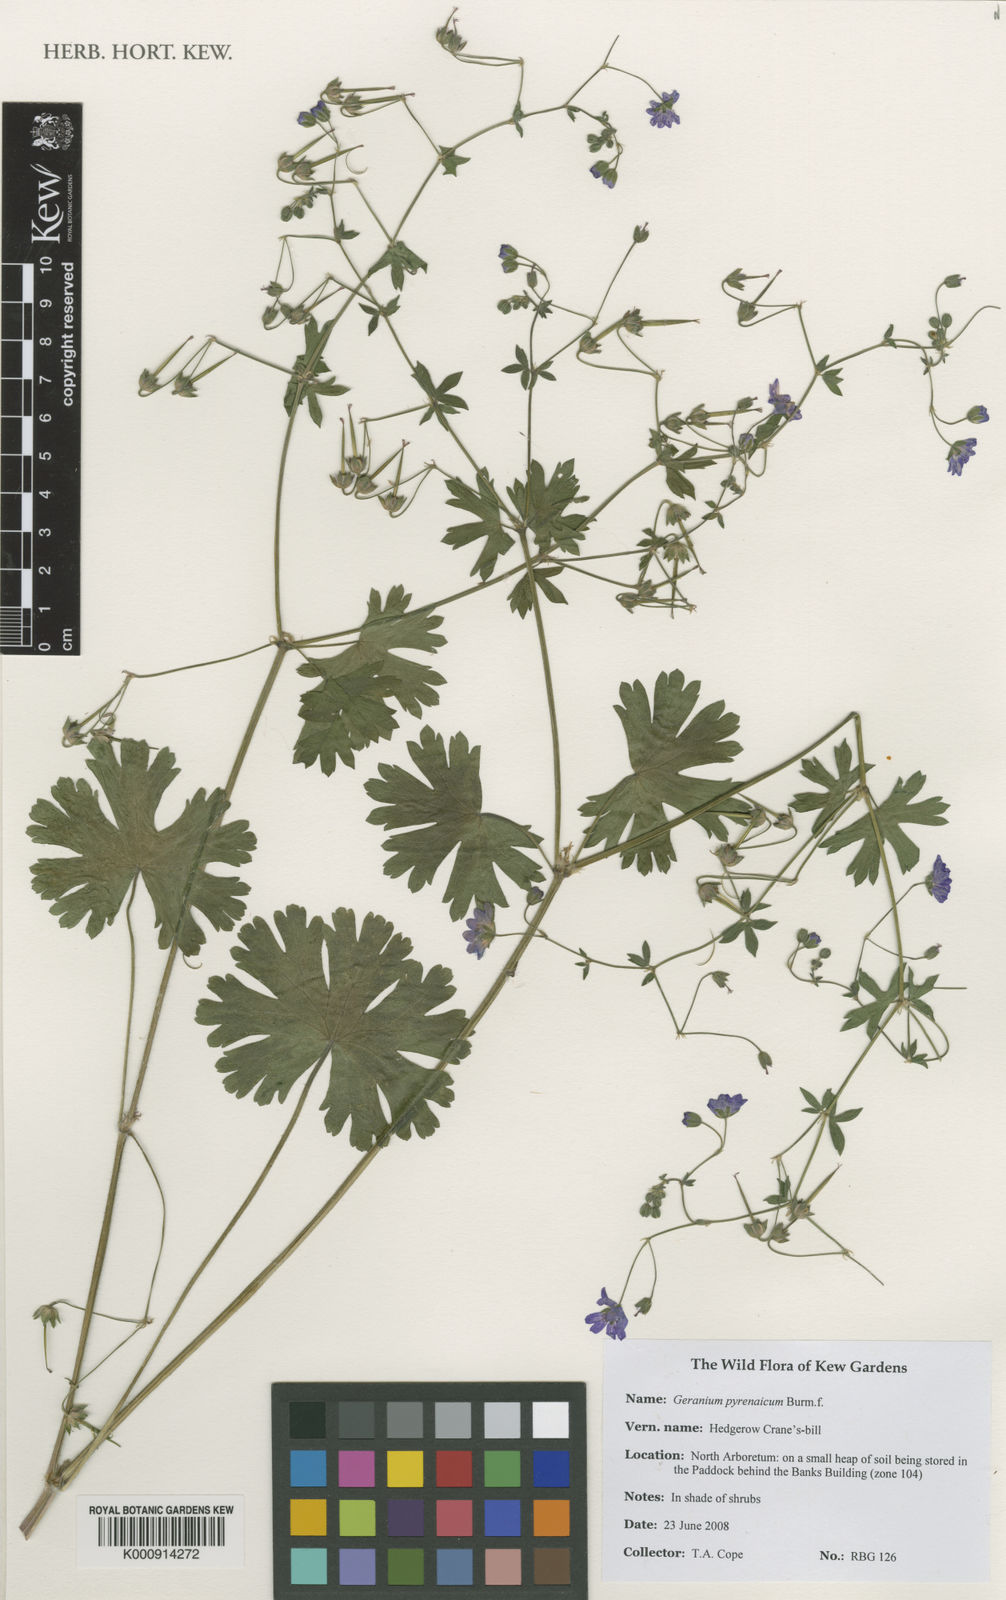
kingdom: Plantae
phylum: Tracheophyta
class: Magnoliopsida
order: Geraniales
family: Geraniaceae
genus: Geranium
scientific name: Geranium pyrenaicum
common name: Hedgerow crane's-bill
